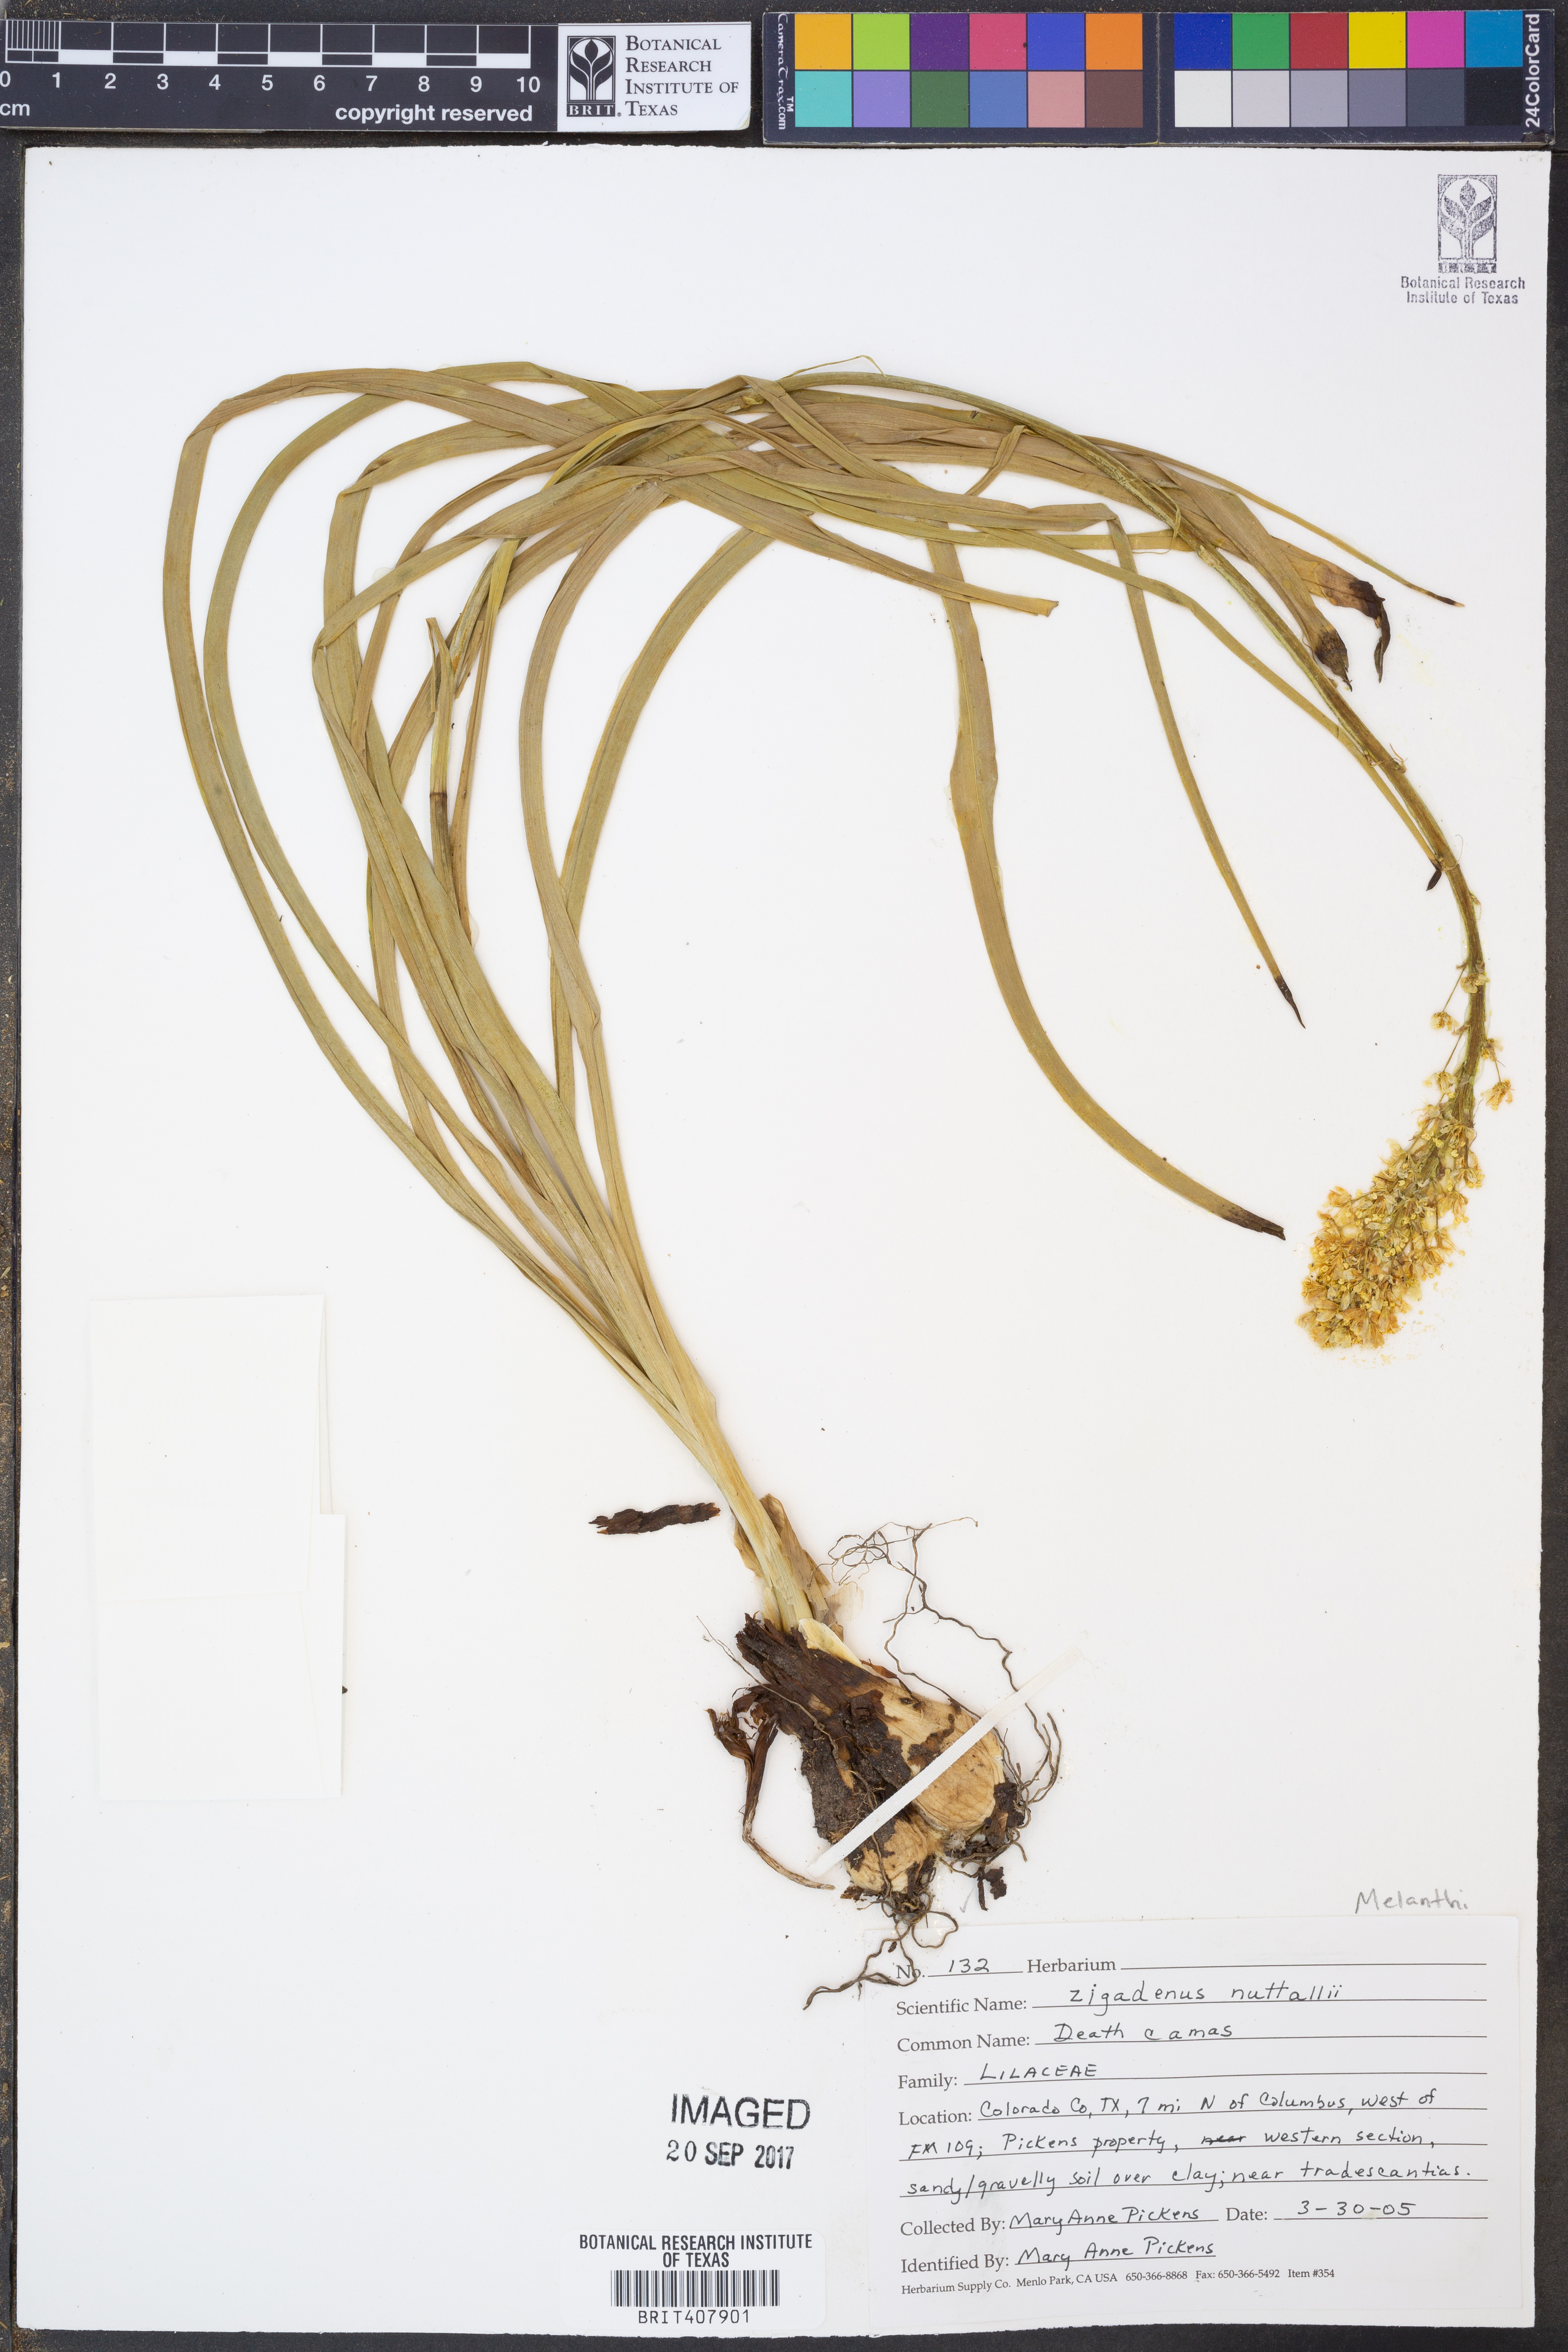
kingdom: Plantae
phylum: Tracheophyta
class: Liliopsida
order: Liliales
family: Melanthiaceae
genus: Toxicoscordion
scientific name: Toxicoscordion nuttallii
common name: Poison sego
